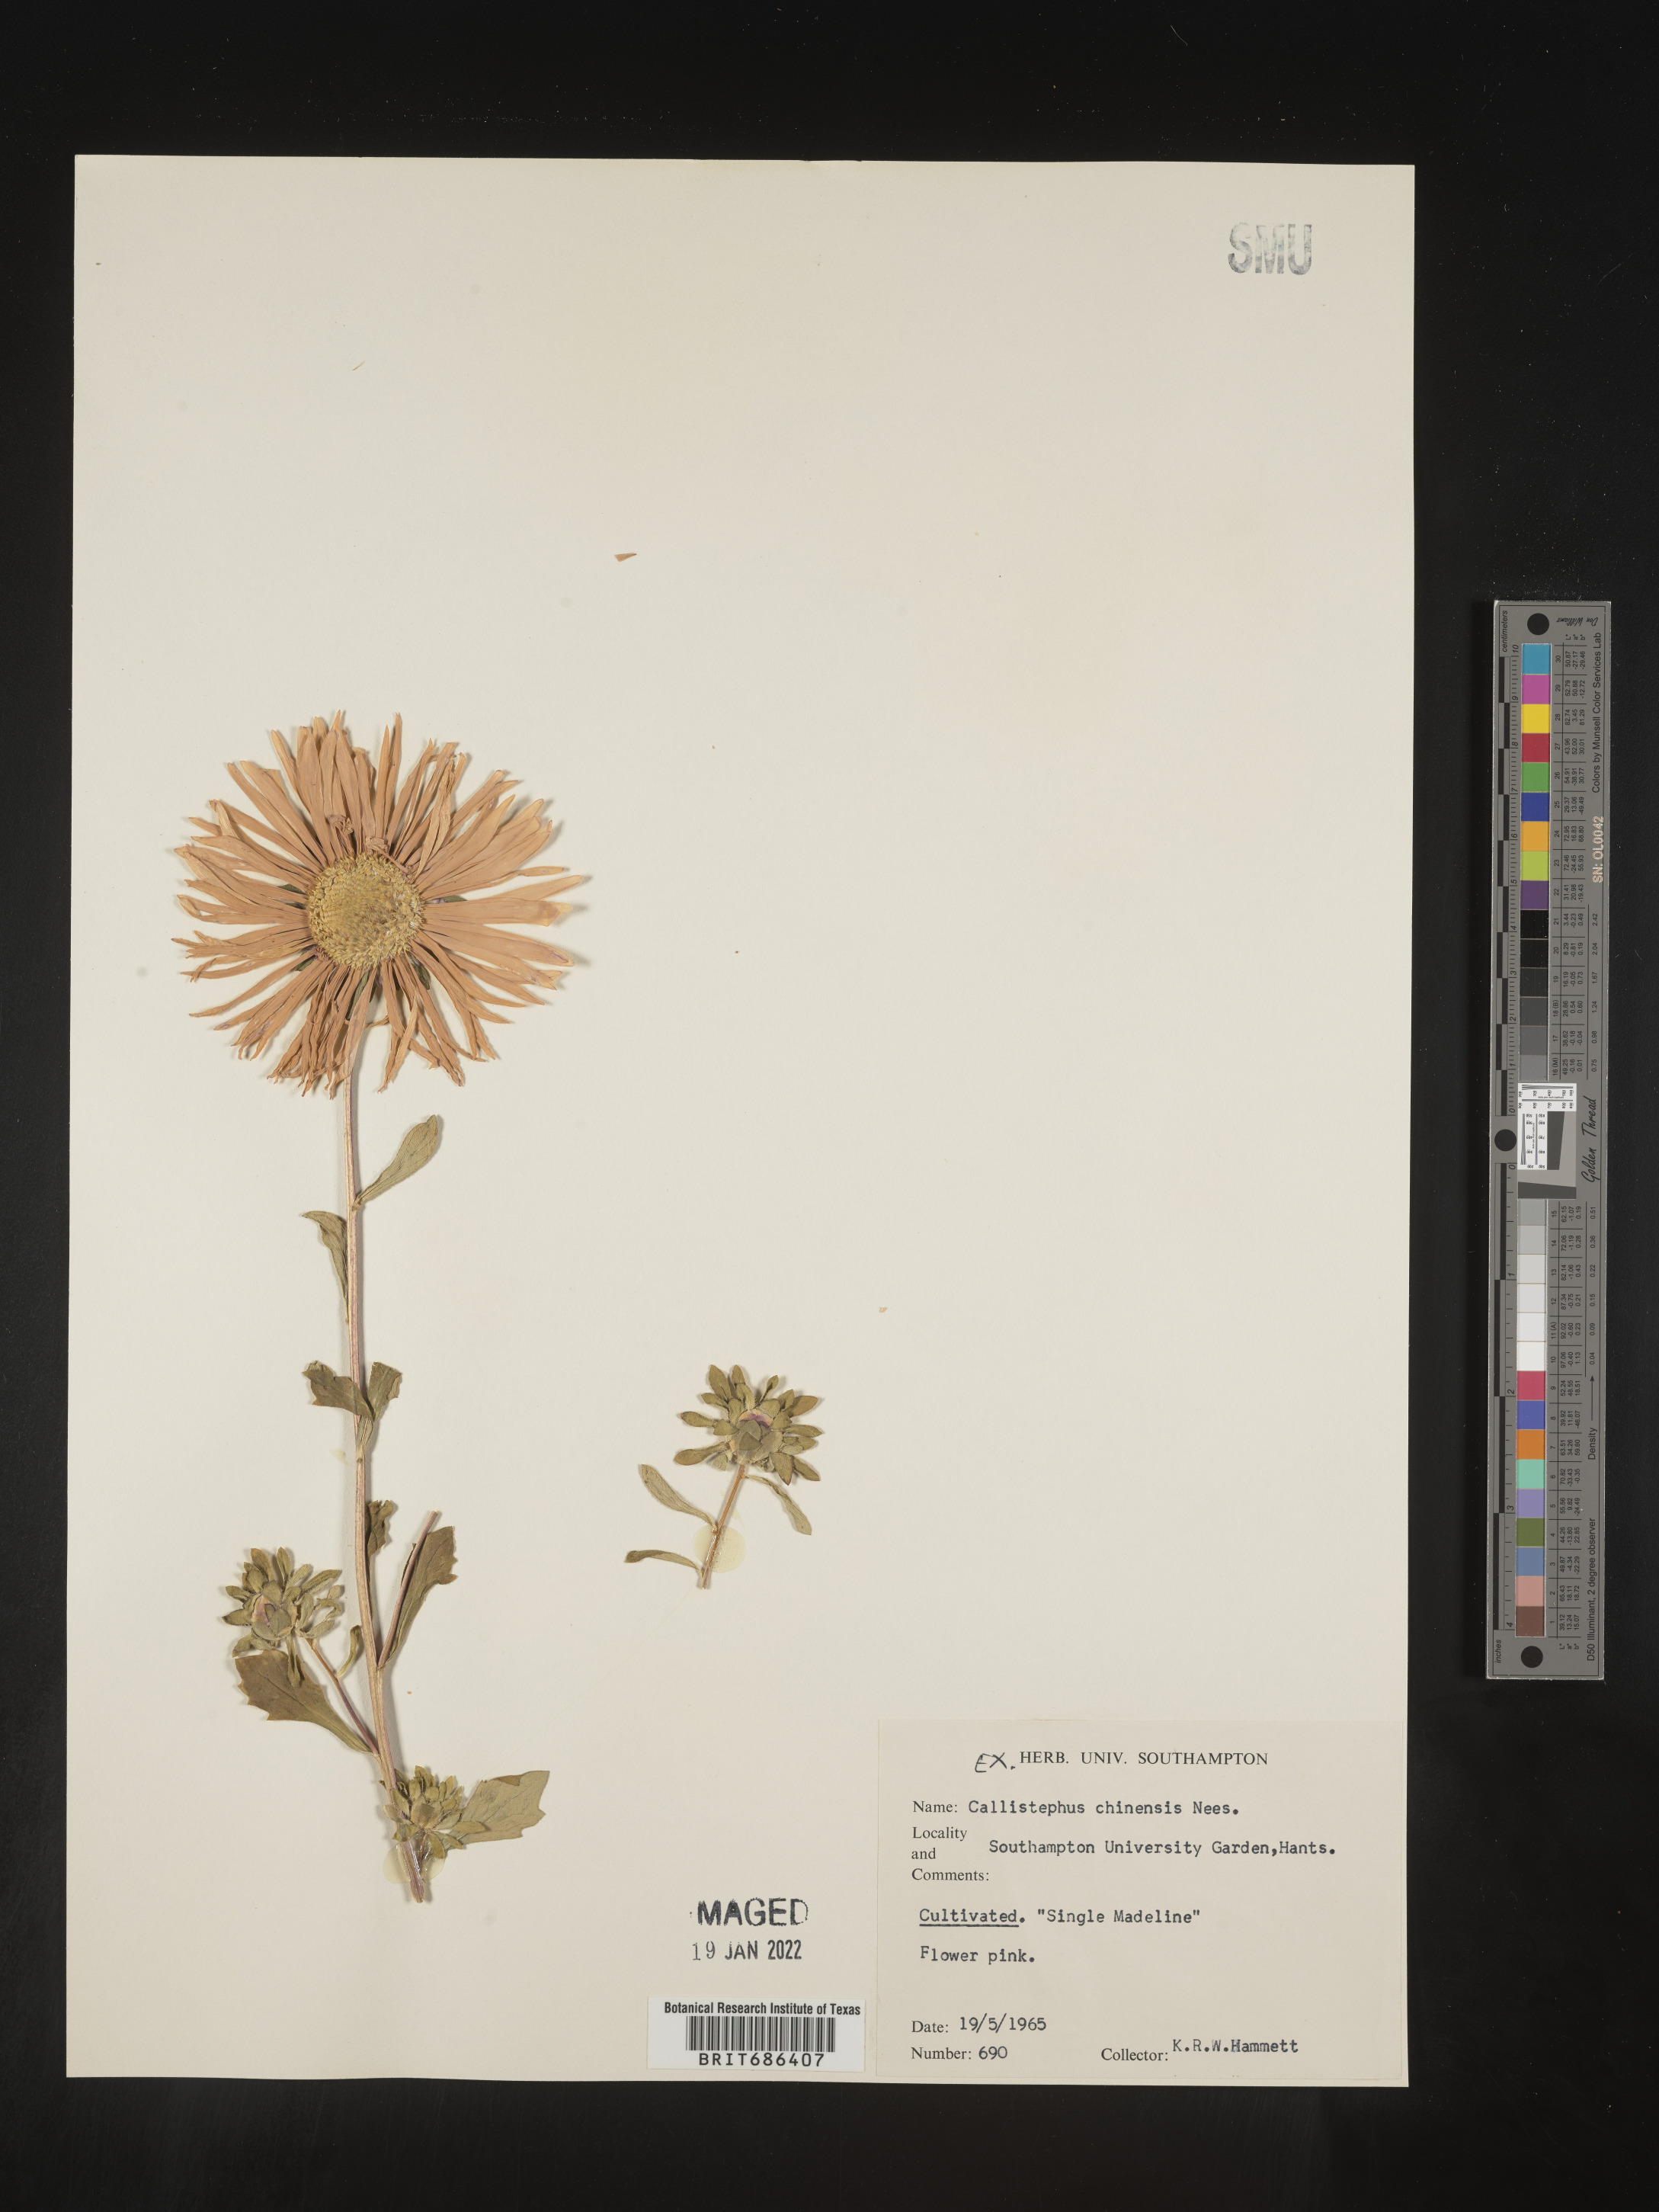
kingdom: Plantae
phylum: Tracheophyta
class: Magnoliopsida
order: Asterales
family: Asteraceae
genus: Callistephus
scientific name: Callistephus
